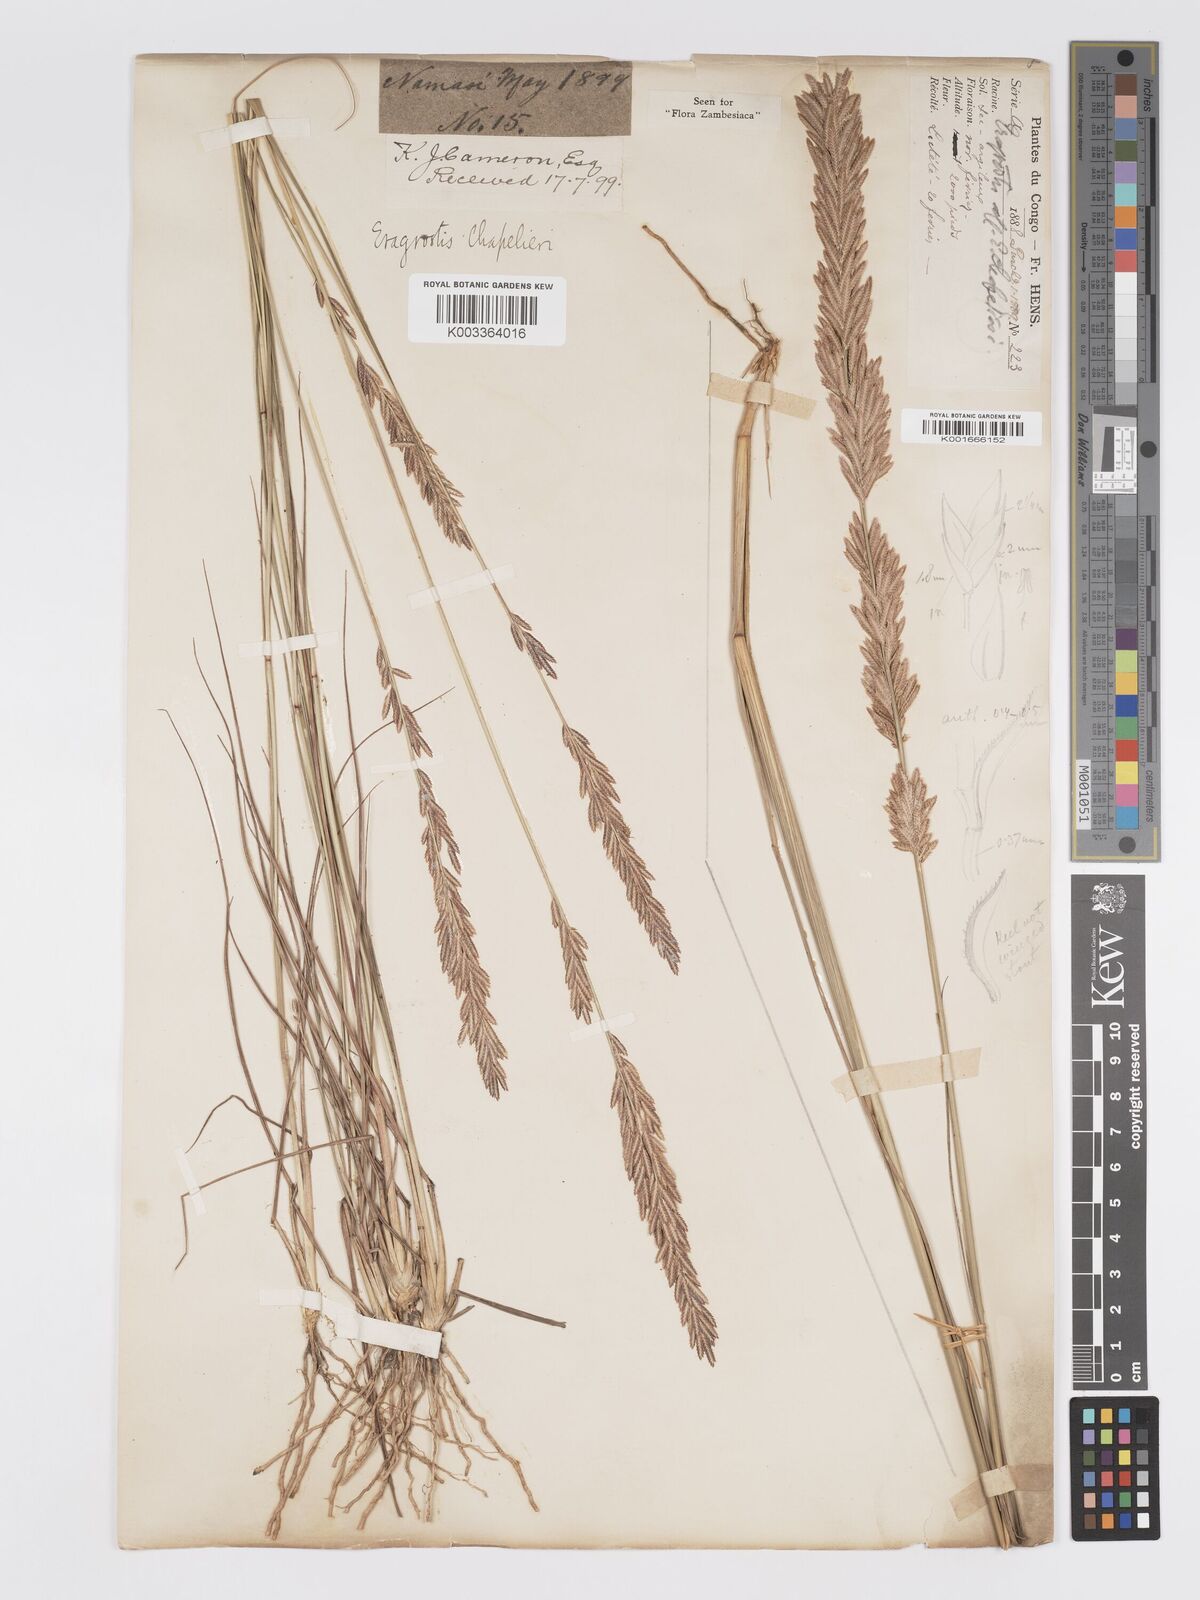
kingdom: Plantae
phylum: Tracheophyta
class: Liliopsida
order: Poales
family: Poaceae
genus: Eragrostis
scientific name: Eragrostis chapelieri
